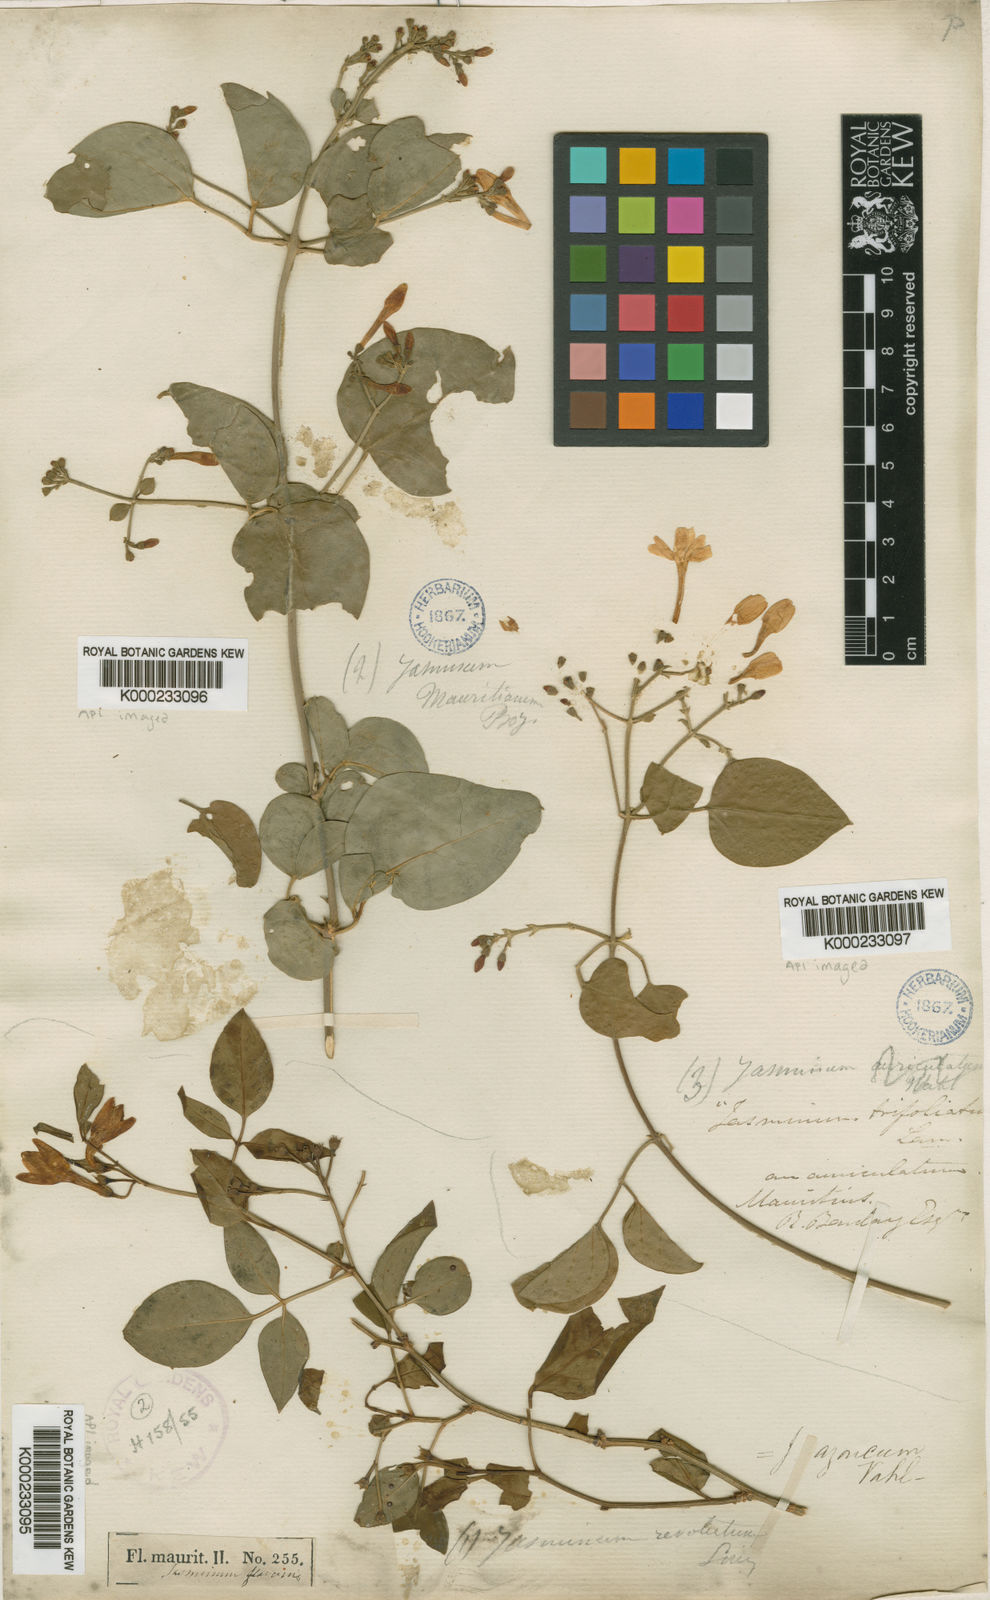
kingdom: Plantae
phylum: Tracheophyta
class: Magnoliopsida
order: Lamiales
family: Oleaceae
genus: Jasminum
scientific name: Jasminum fluminense
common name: Brazilian jasmine
